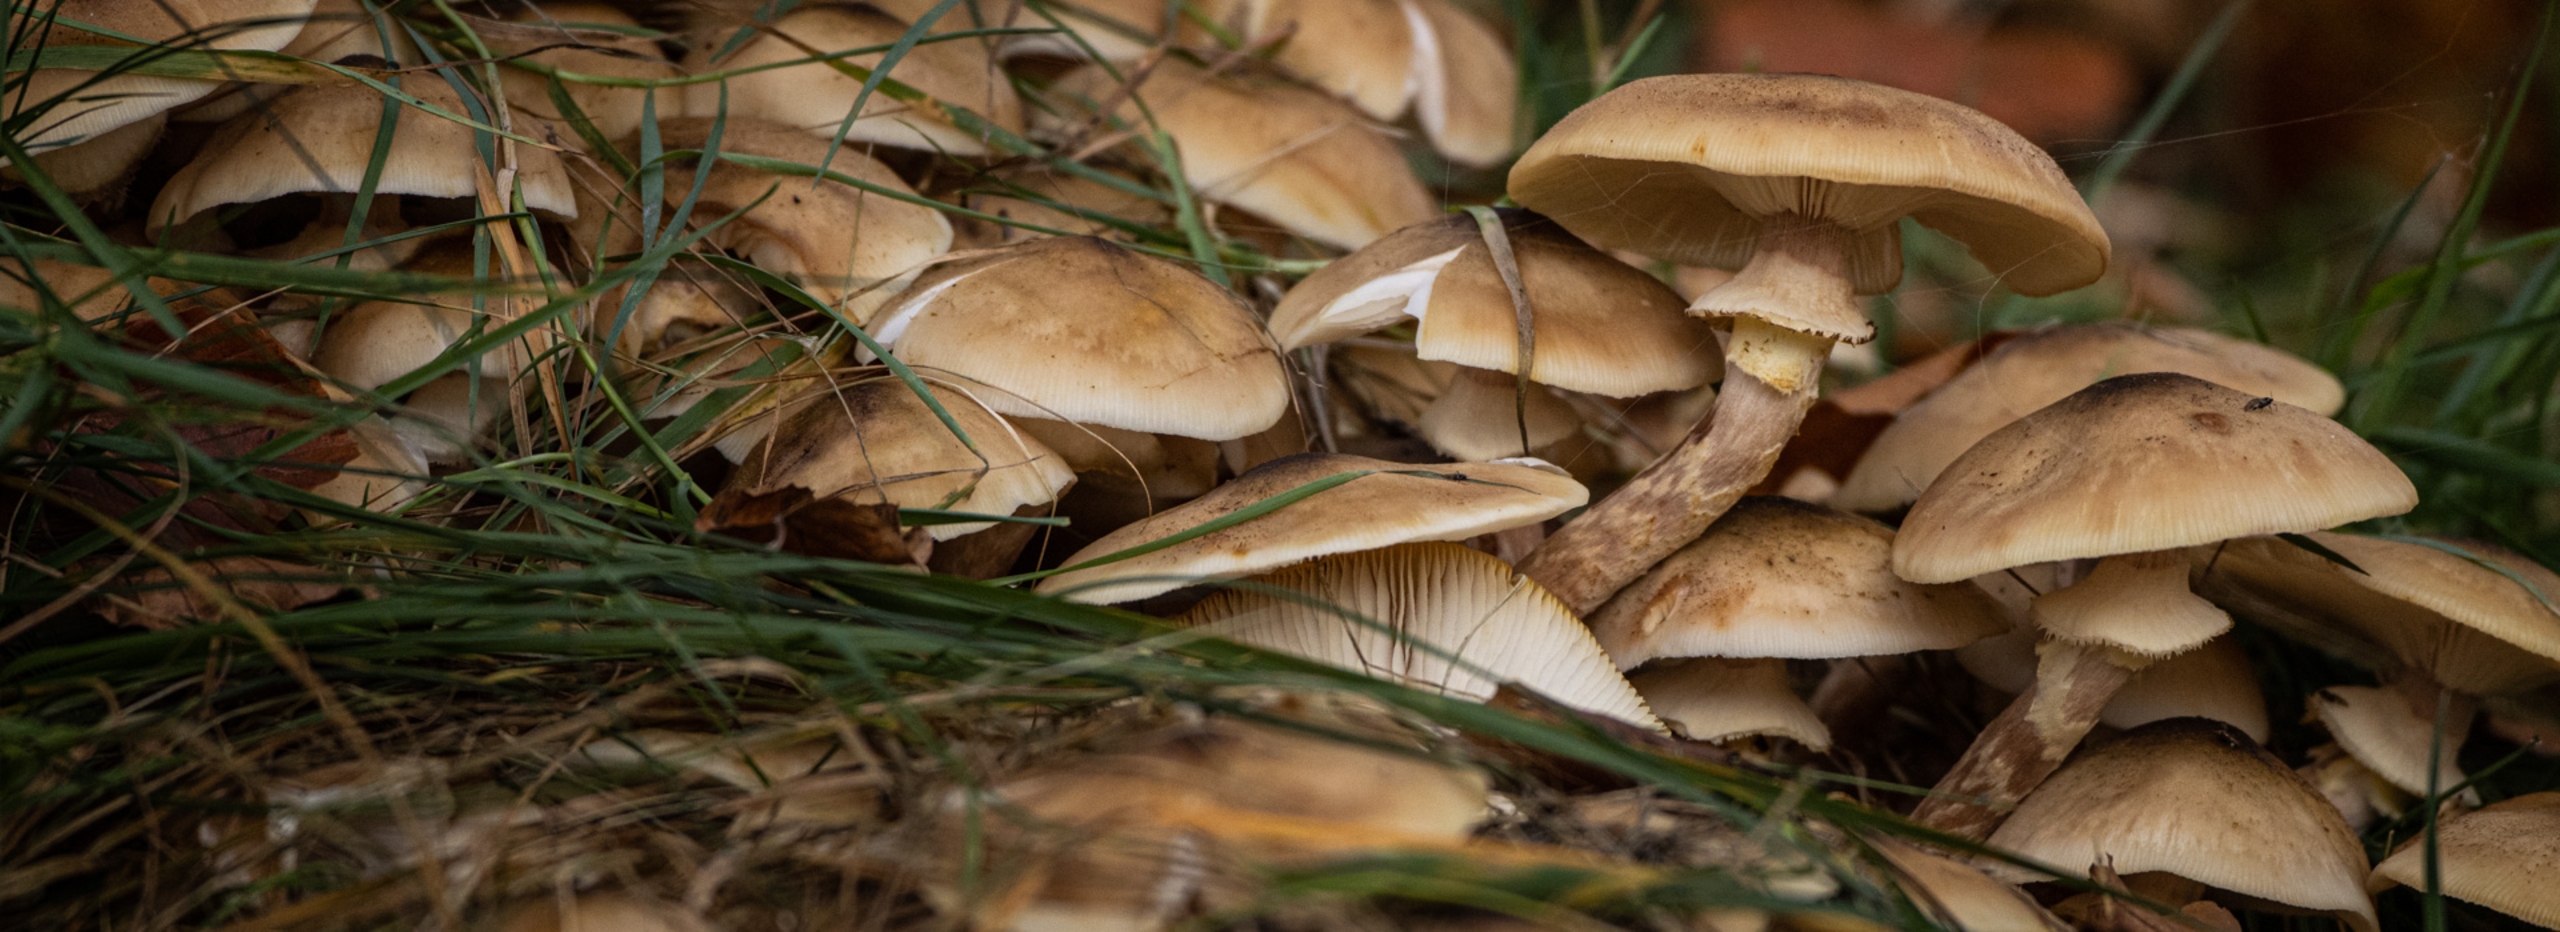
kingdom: Fungi
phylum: Basidiomycota
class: Agaricomycetes
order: Agaricales
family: Physalacriaceae
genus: Armillaria
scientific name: Armillaria mellea
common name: Ægte honningsvamp
